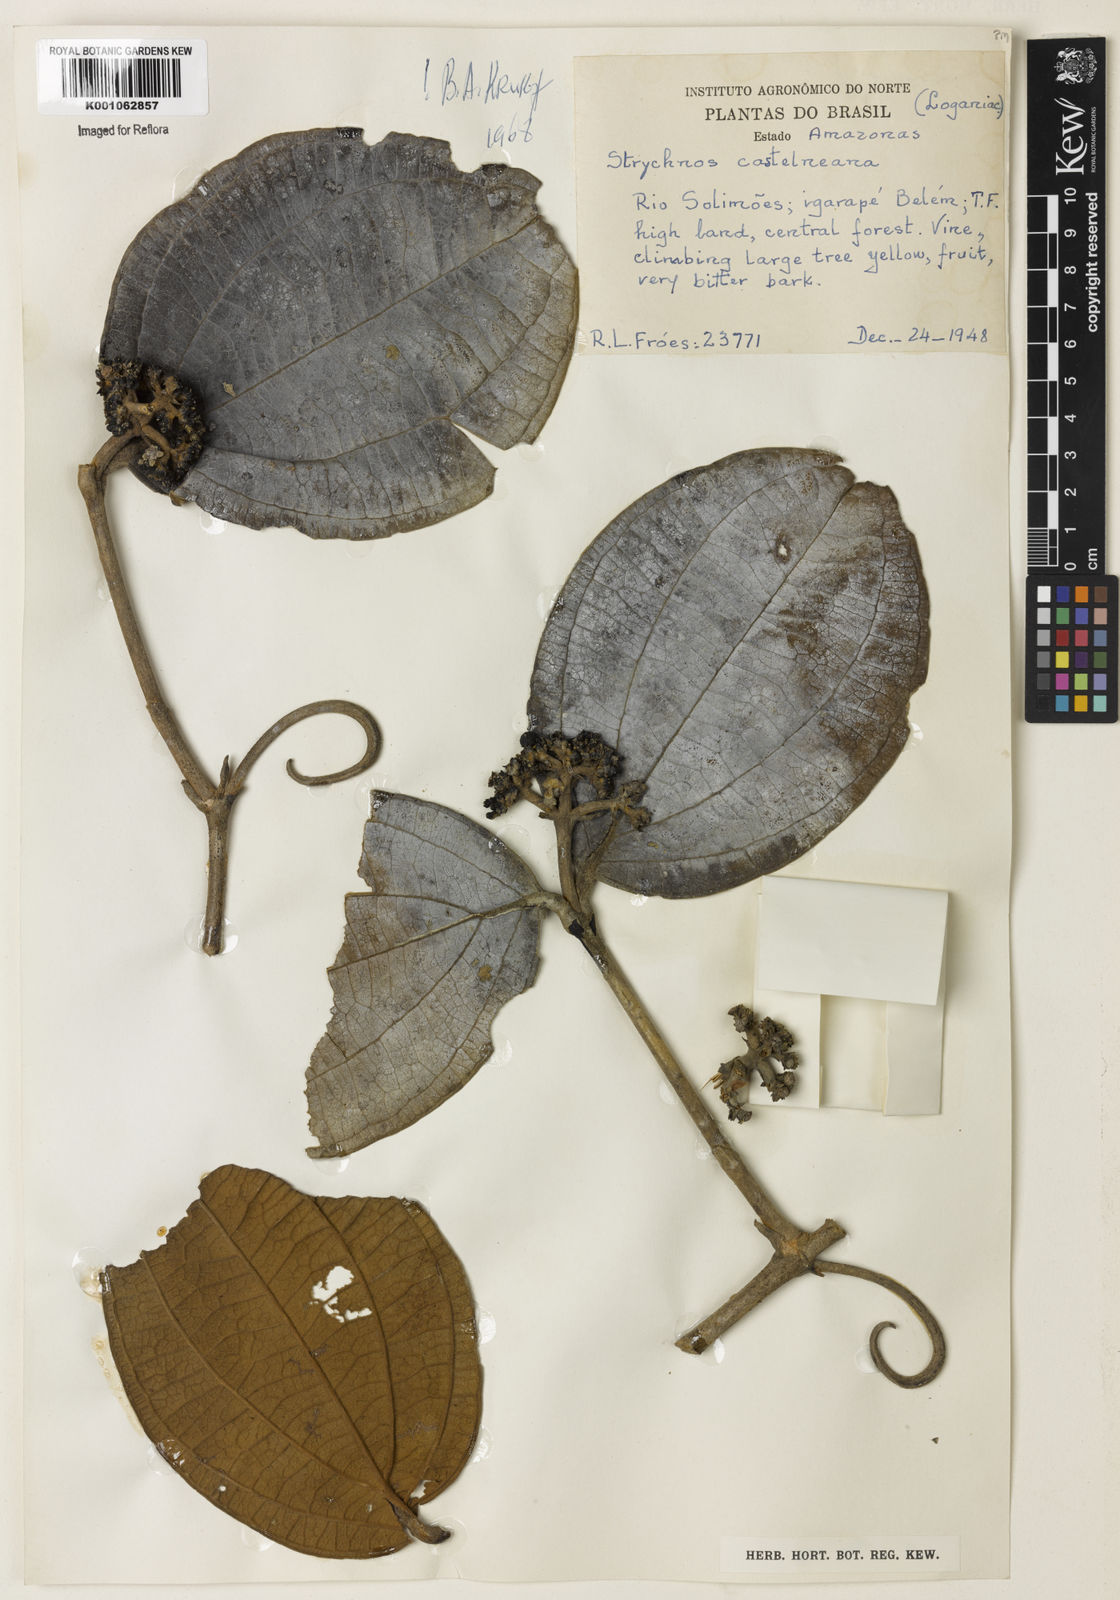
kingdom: Plantae
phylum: Tracheophyta
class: Magnoliopsida
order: Gentianales
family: Loganiaceae
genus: Strychnos
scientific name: Strychnos
